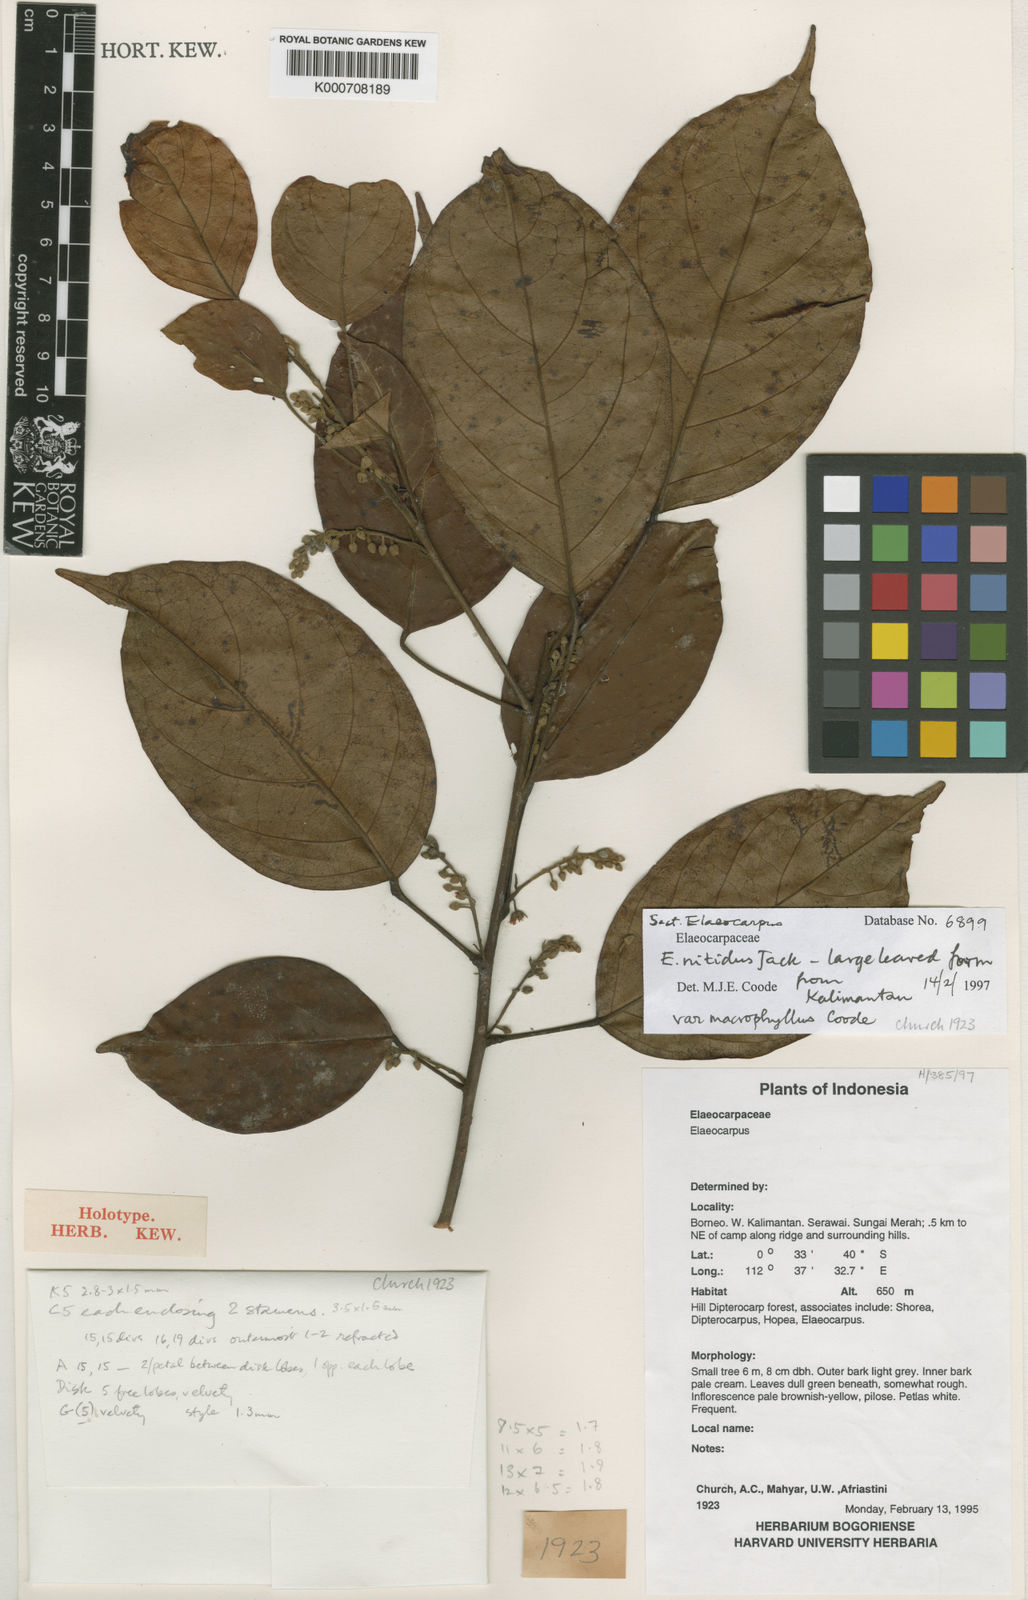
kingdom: Plantae
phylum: Tracheophyta
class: Magnoliopsida
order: Oxalidales
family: Elaeocarpaceae
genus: Elaeocarpus
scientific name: Elaeocarpus nitidus
